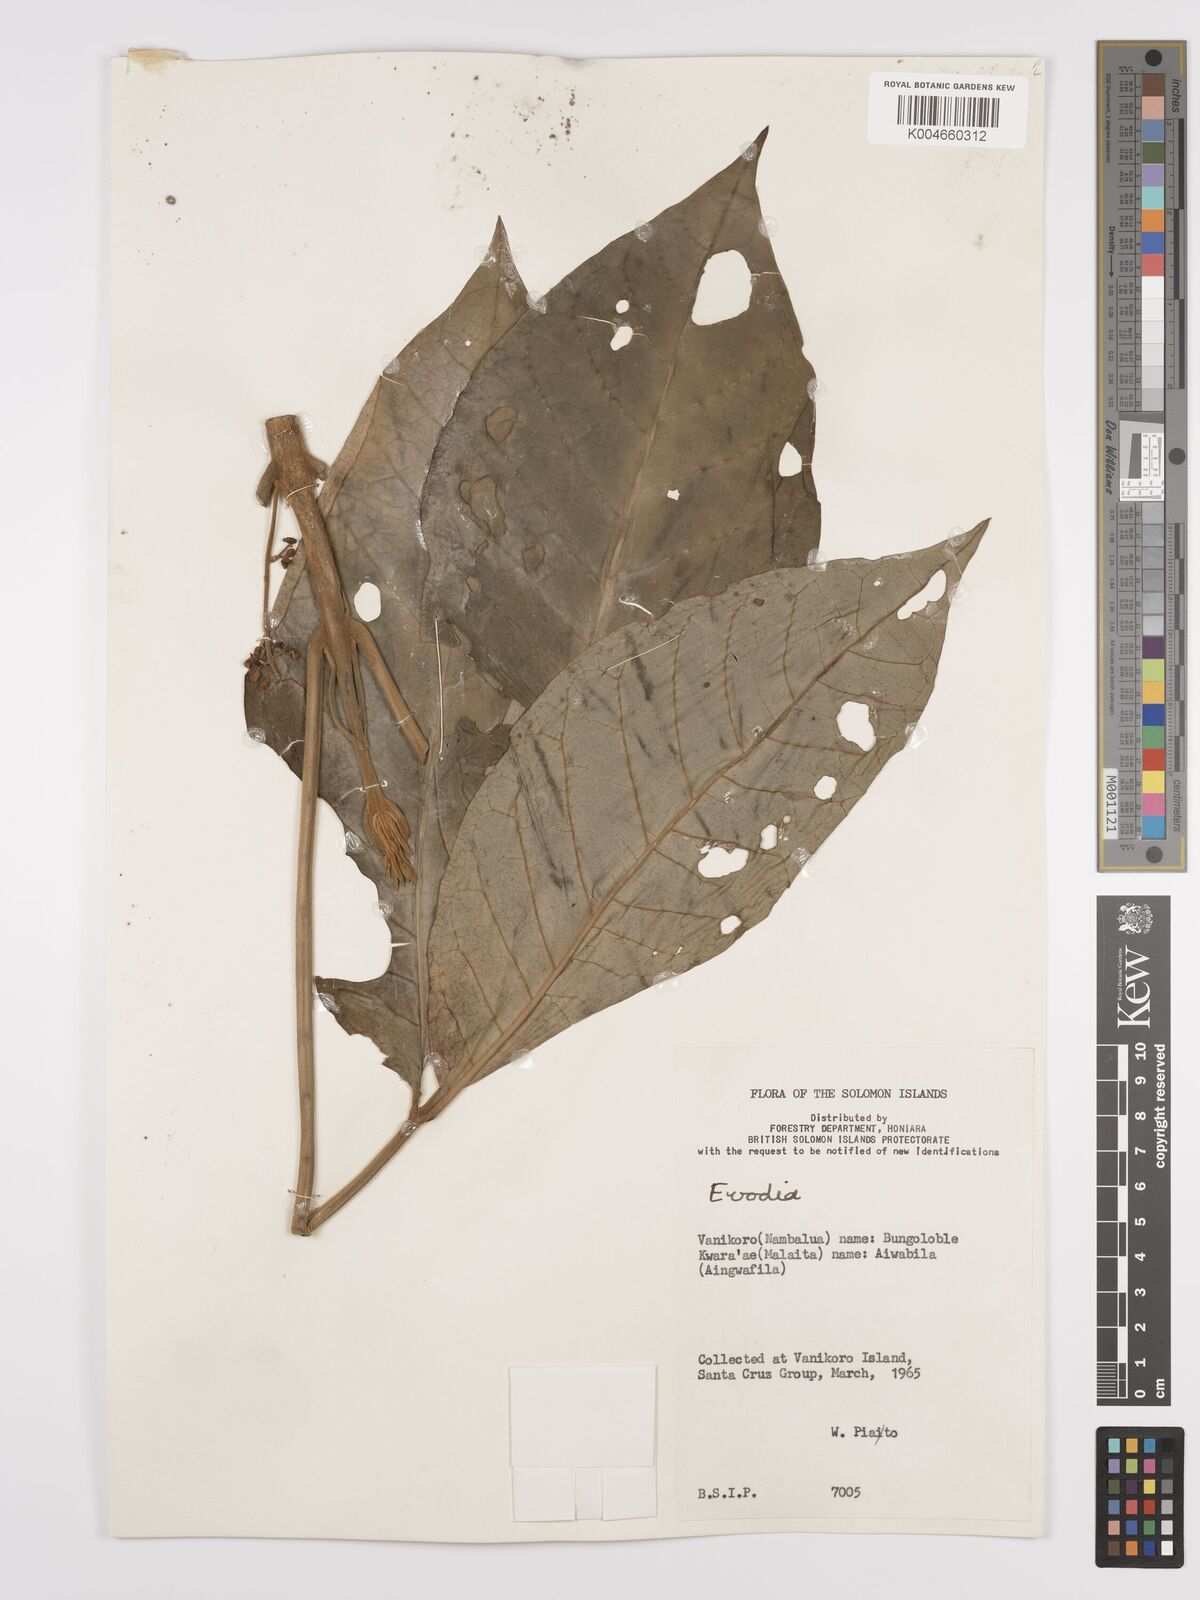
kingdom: Plantae
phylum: Tracheophyta
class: Magnoliopsida
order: Sapindales
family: Rutaceae
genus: Euodia
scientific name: Euodia
